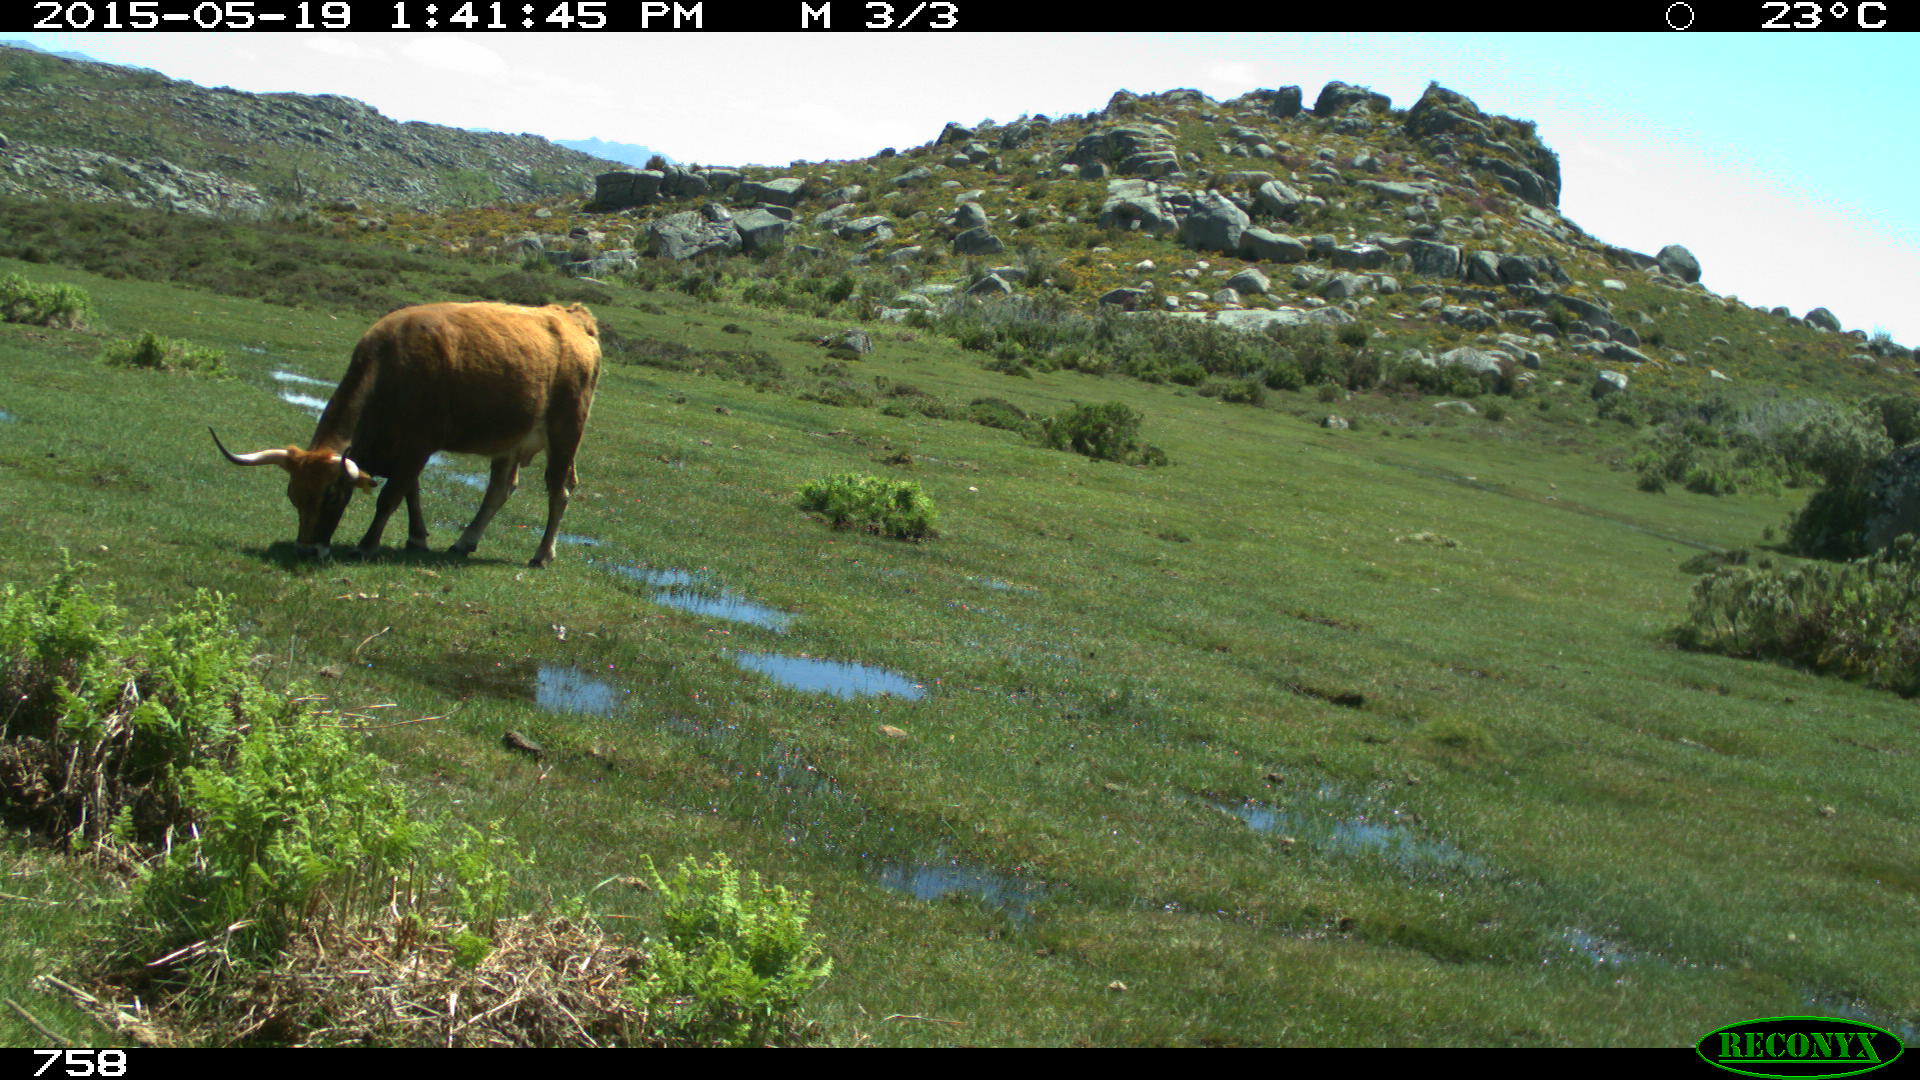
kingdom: Animalia
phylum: Chordata
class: Mammalia
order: Artiodactyla
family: Bovidae
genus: Bos
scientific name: Bos taurus
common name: Domesticated cattle
